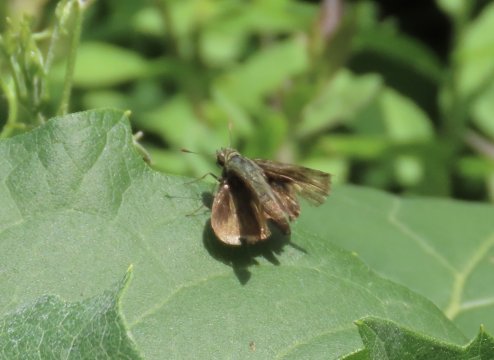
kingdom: Animalia
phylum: Arthropoda
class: Insecta
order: Lepidoptera
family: Hesperiidae
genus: Euphyes
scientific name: Euphyes vestris
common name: Dun Skipper
